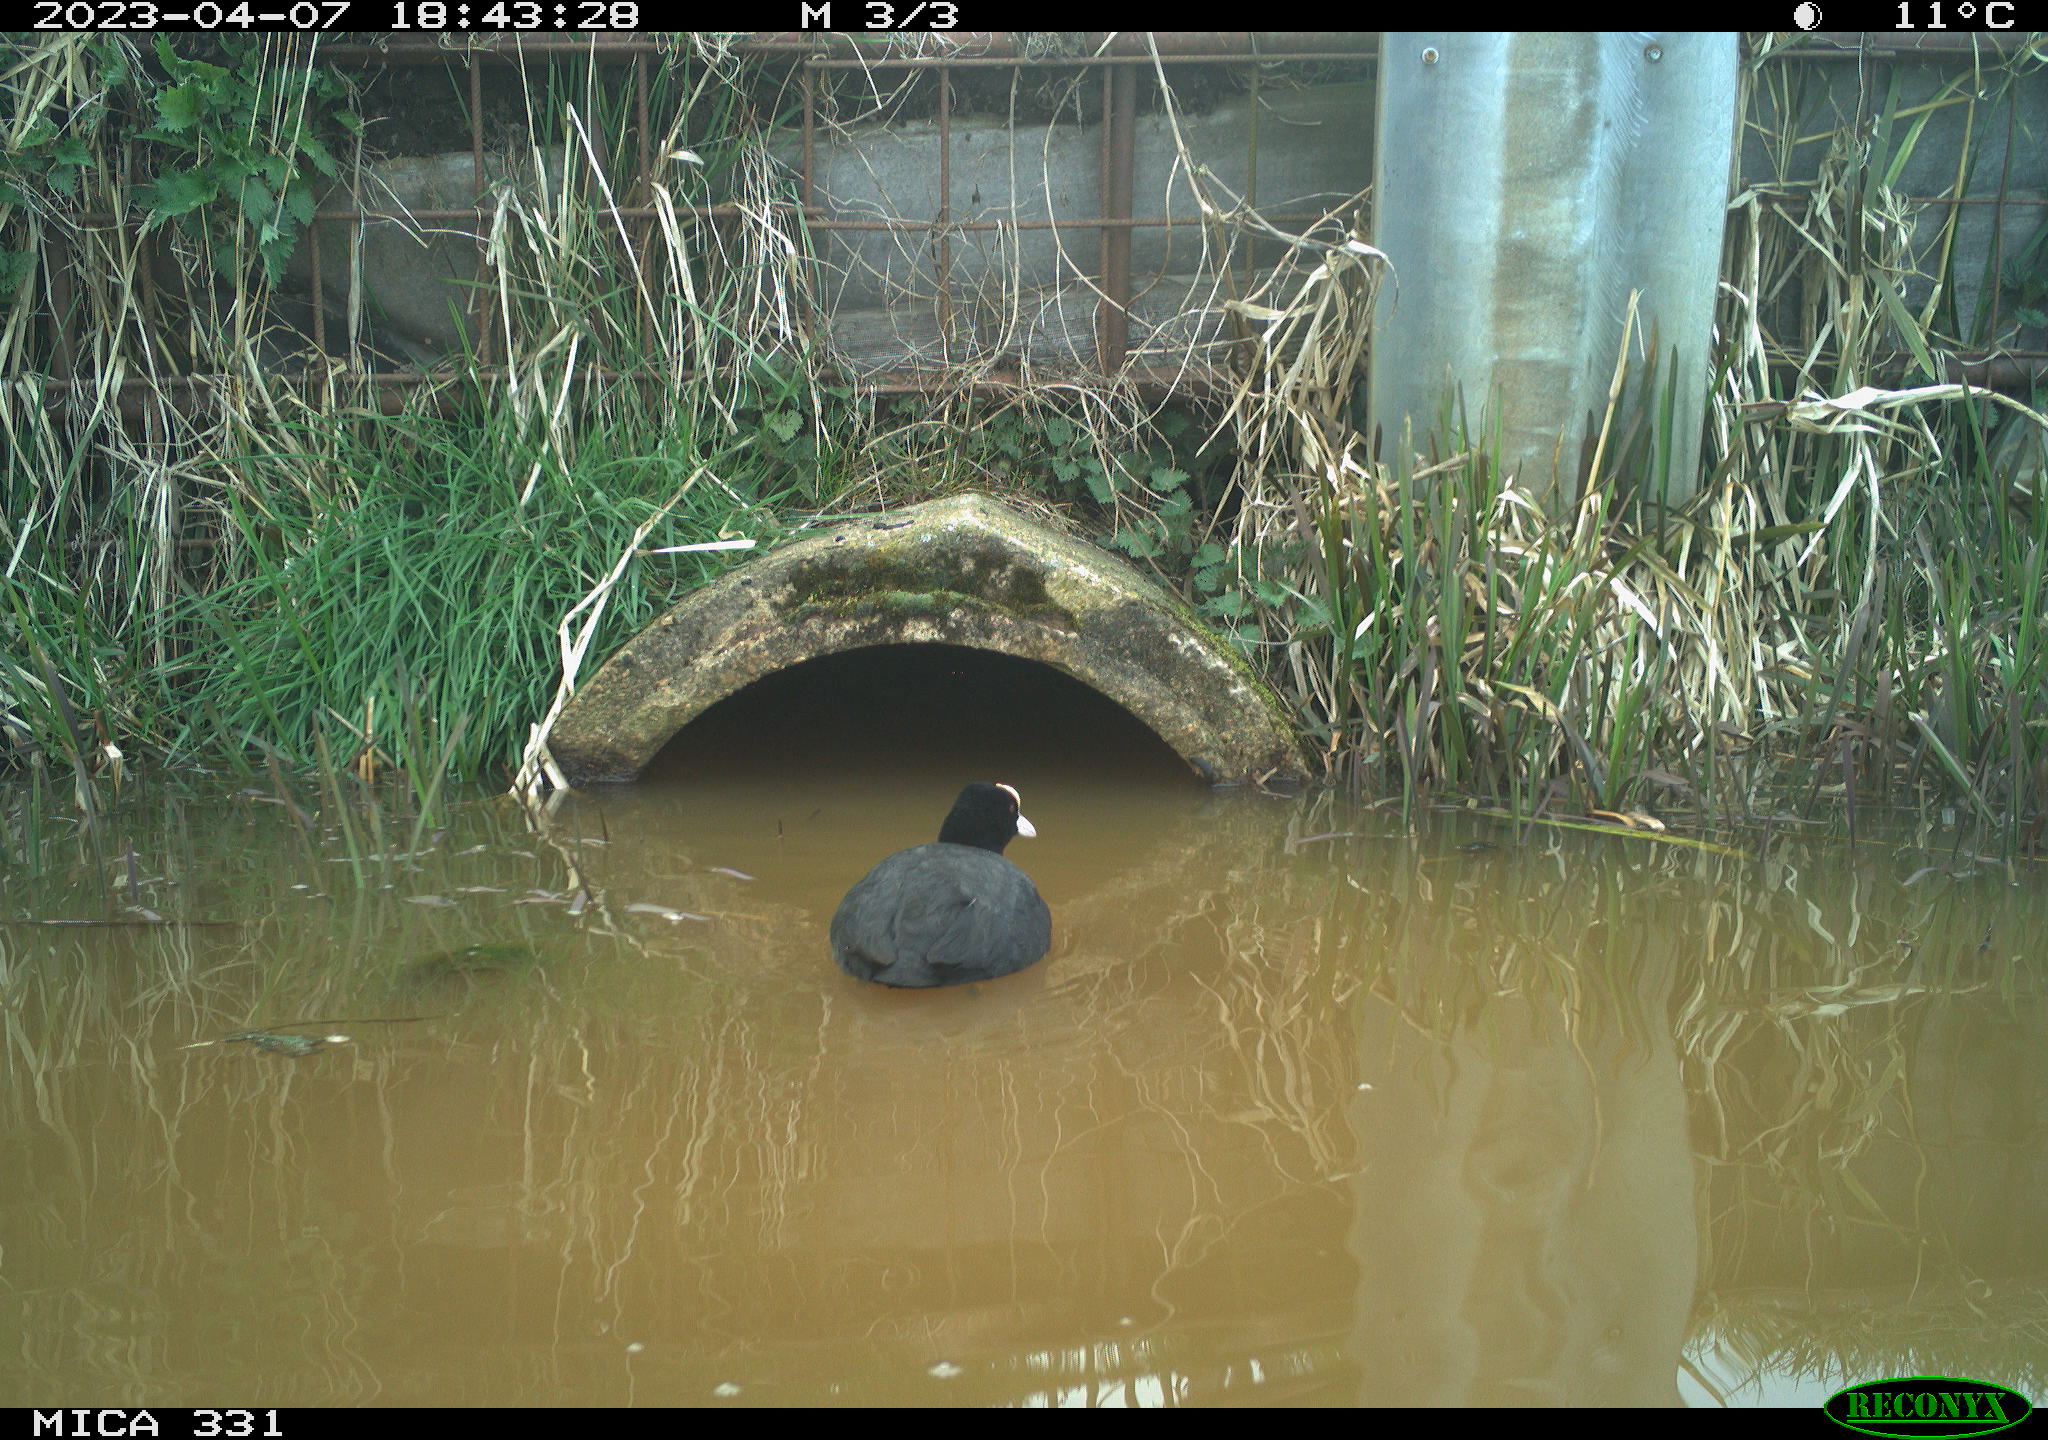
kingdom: Animalia
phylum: Chordata
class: Aves
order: Gruiformes
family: Rallidae
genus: Fulica
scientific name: Fulica atra
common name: Eurasian coot
